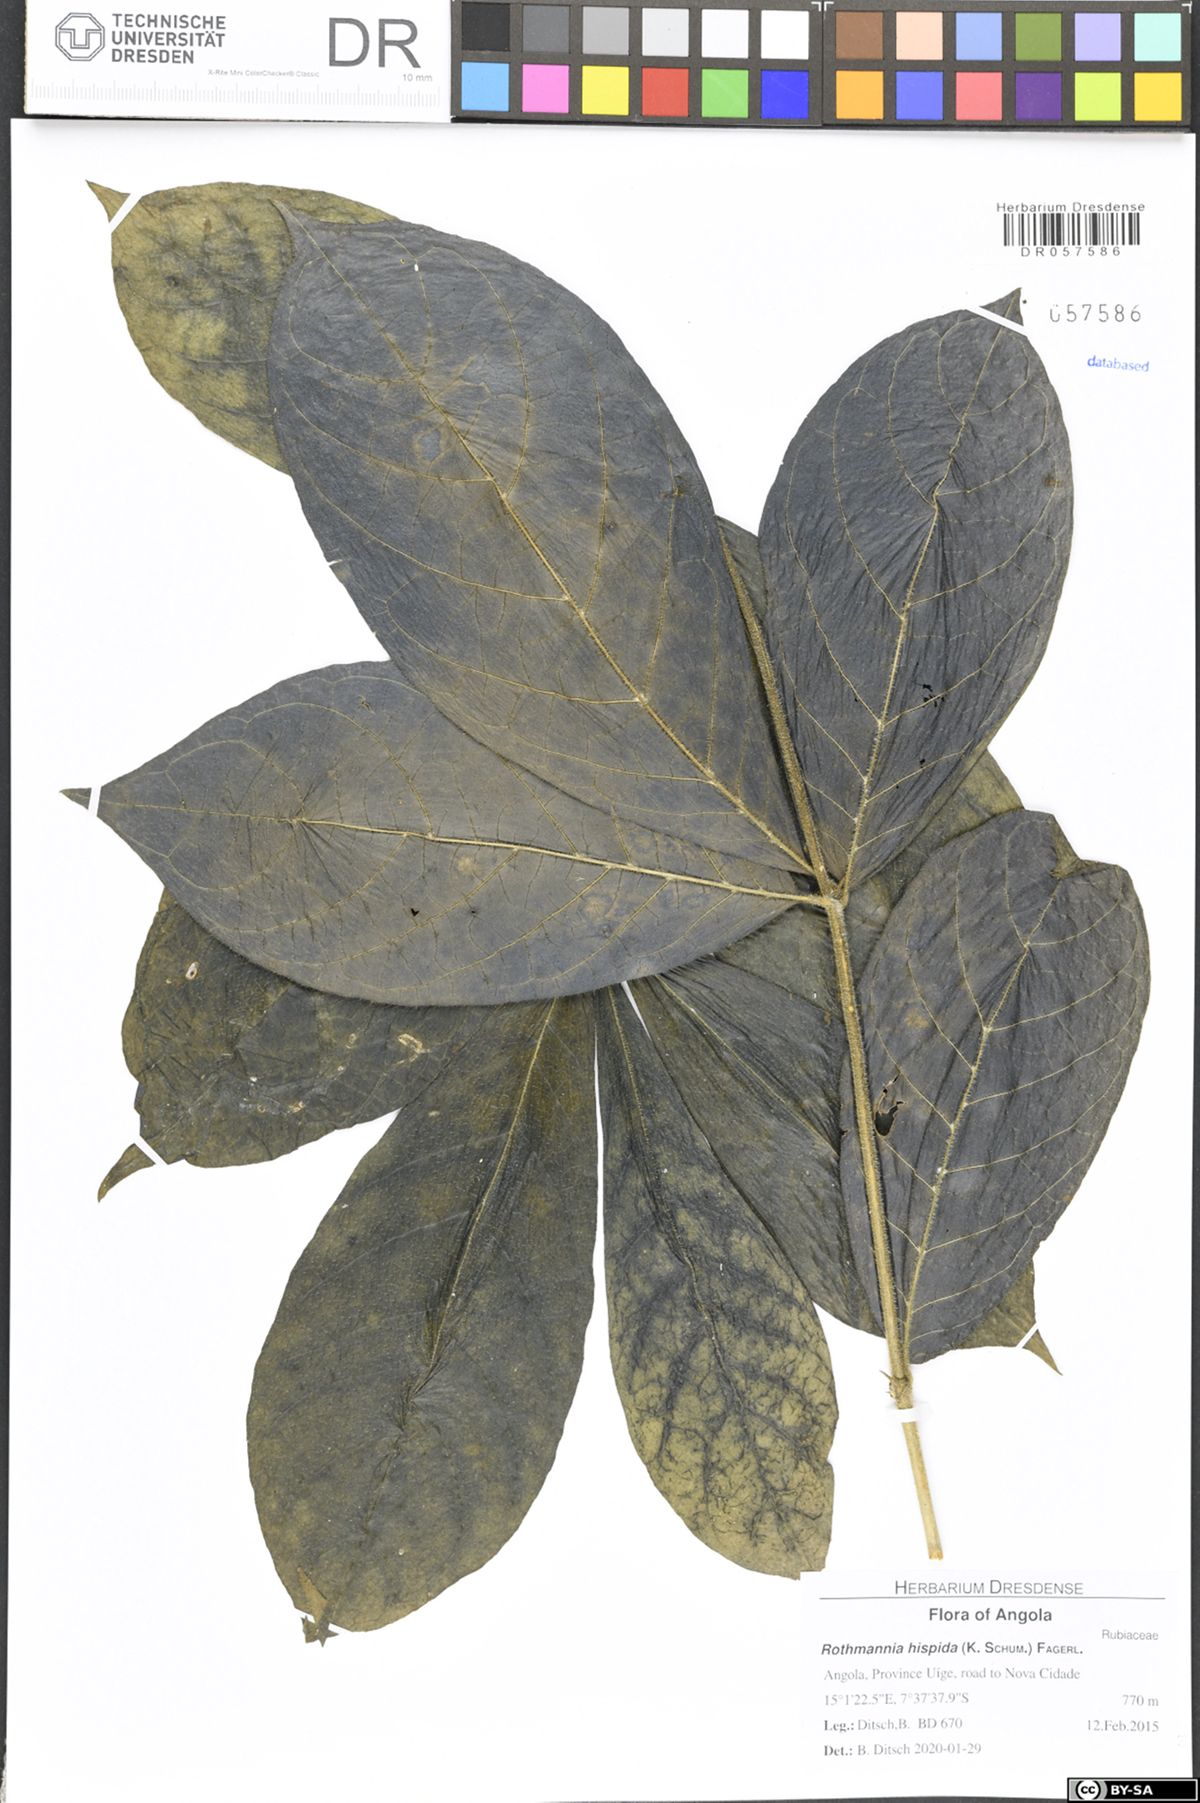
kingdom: Plantae
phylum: Tracheophyta
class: Magnoliopsida
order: Gentianales
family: Rubiaceae
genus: Rothmannia
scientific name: Rothmannia hispida
